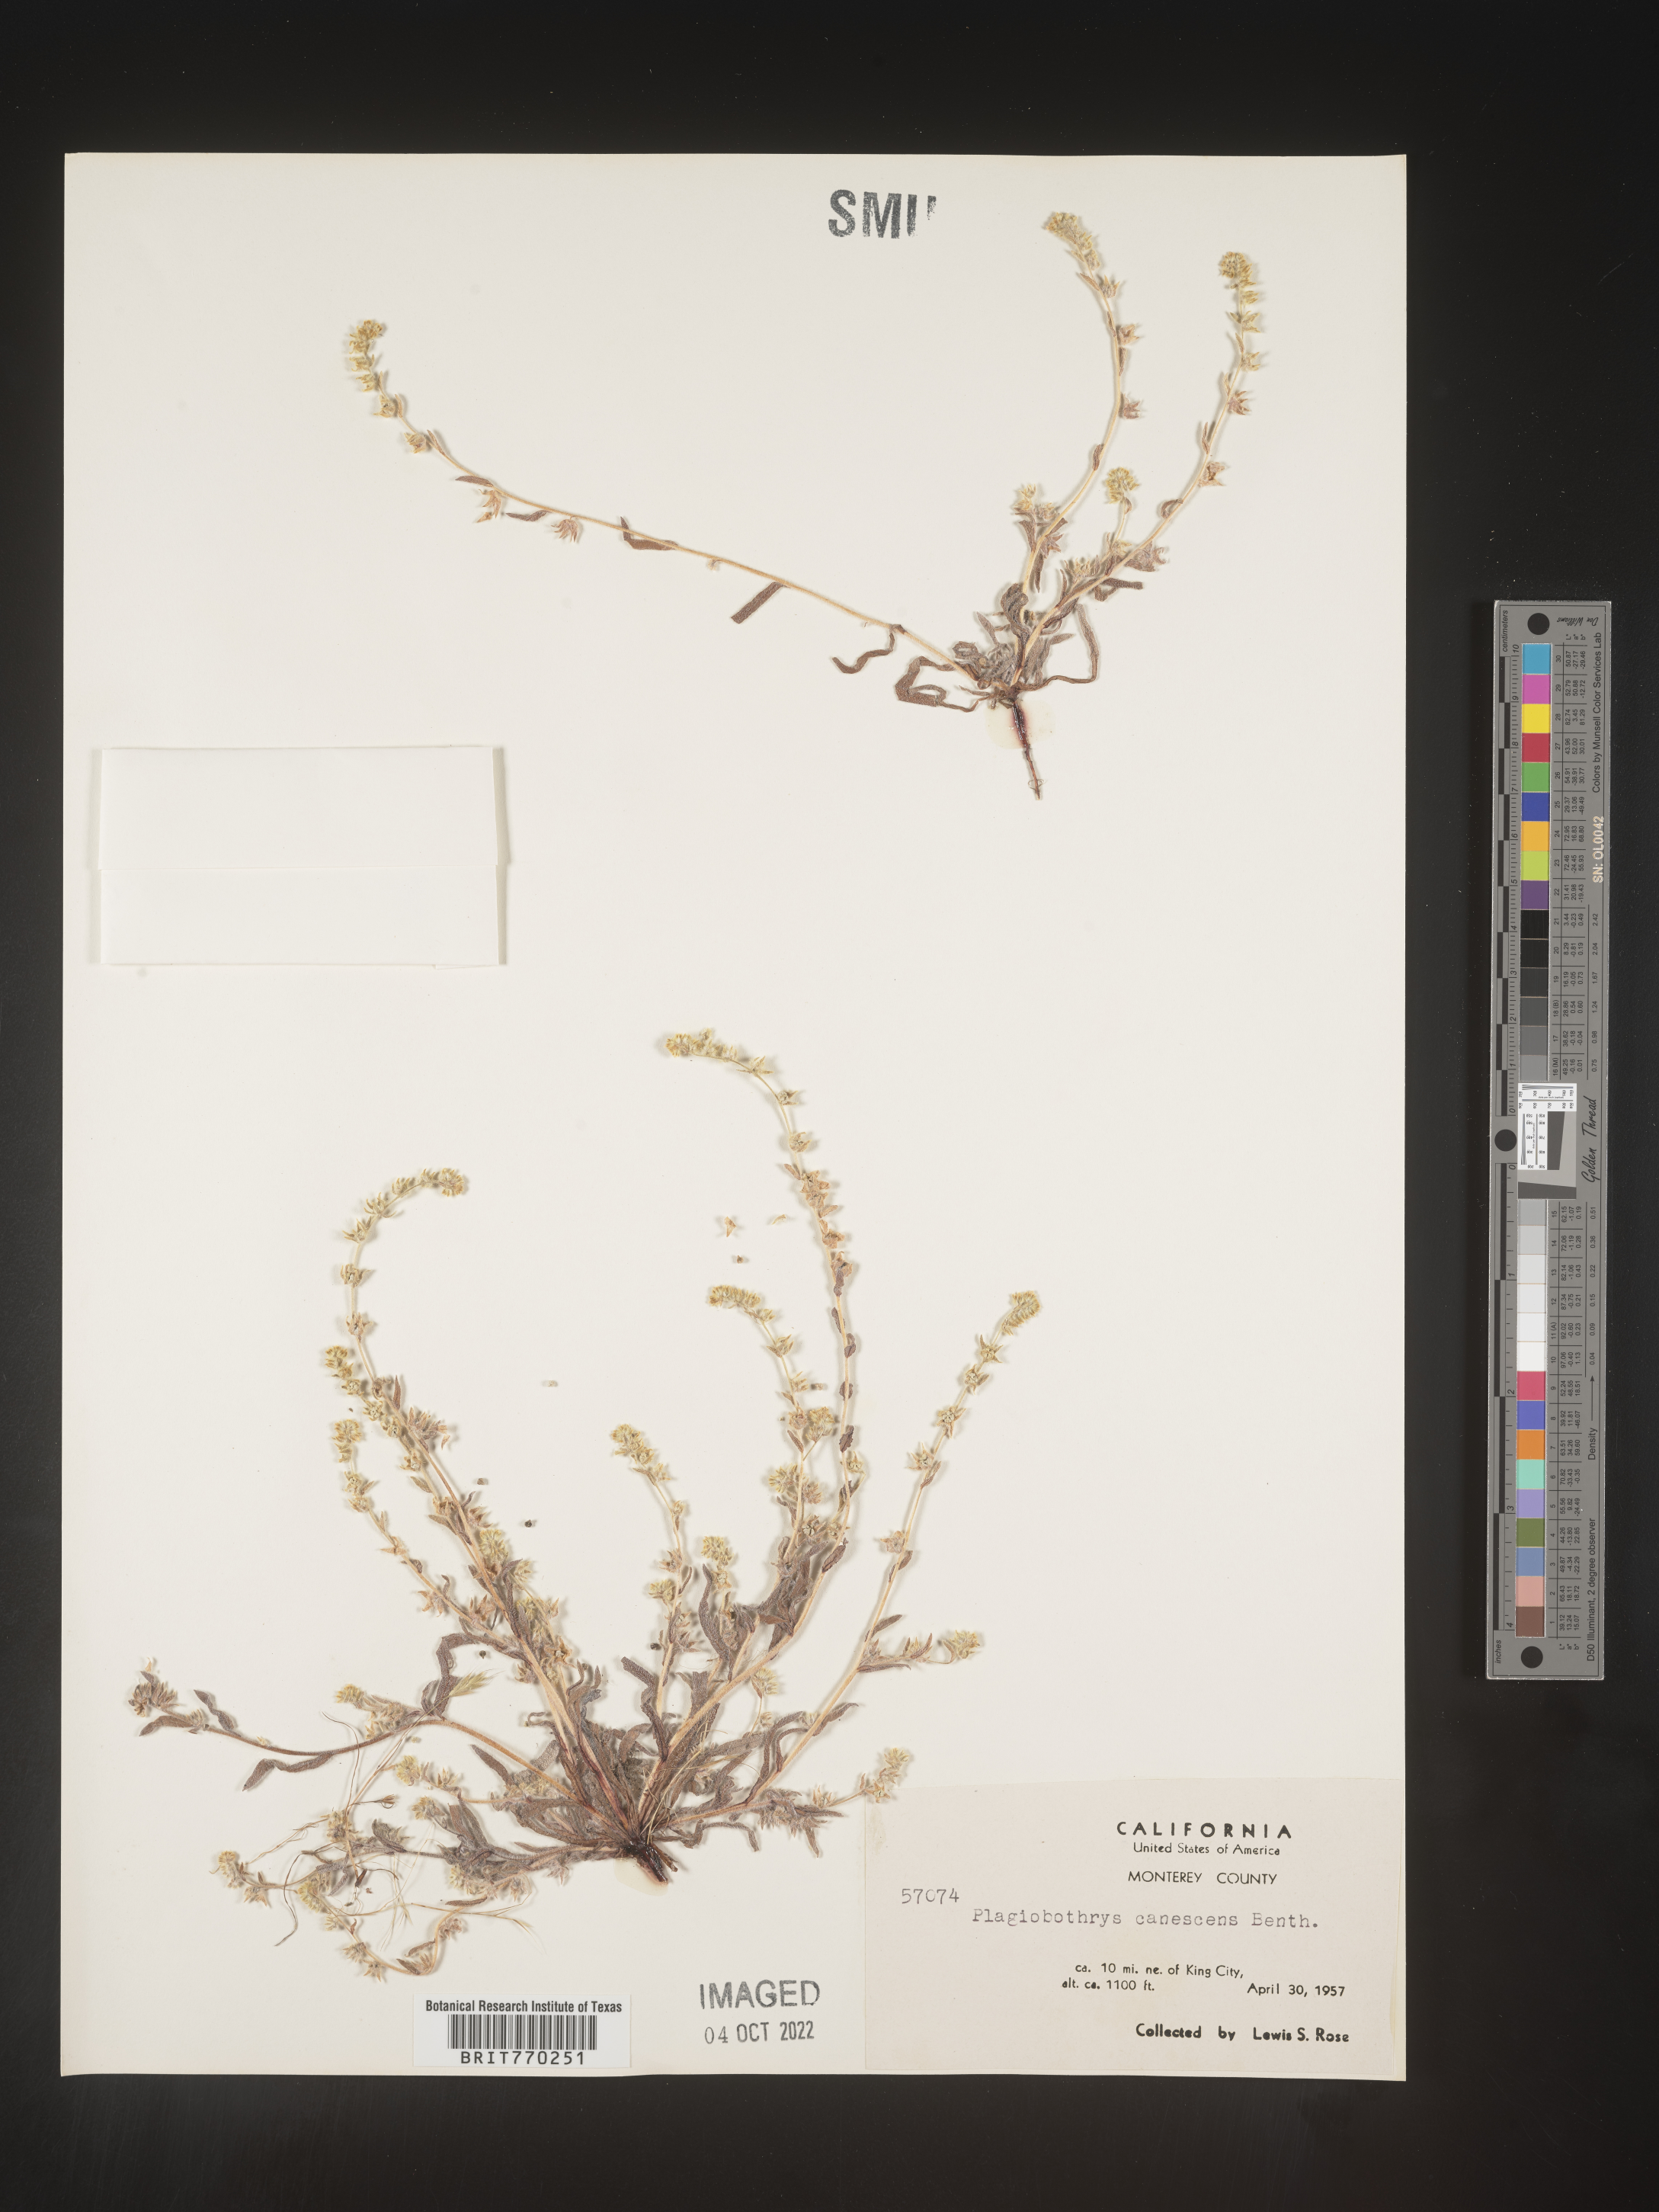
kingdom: Plantae
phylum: Tracheophyta
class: Magnoliopsida
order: Boraginales
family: Boraginaceae
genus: Plagiobothrys
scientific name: Plagiobothrys
